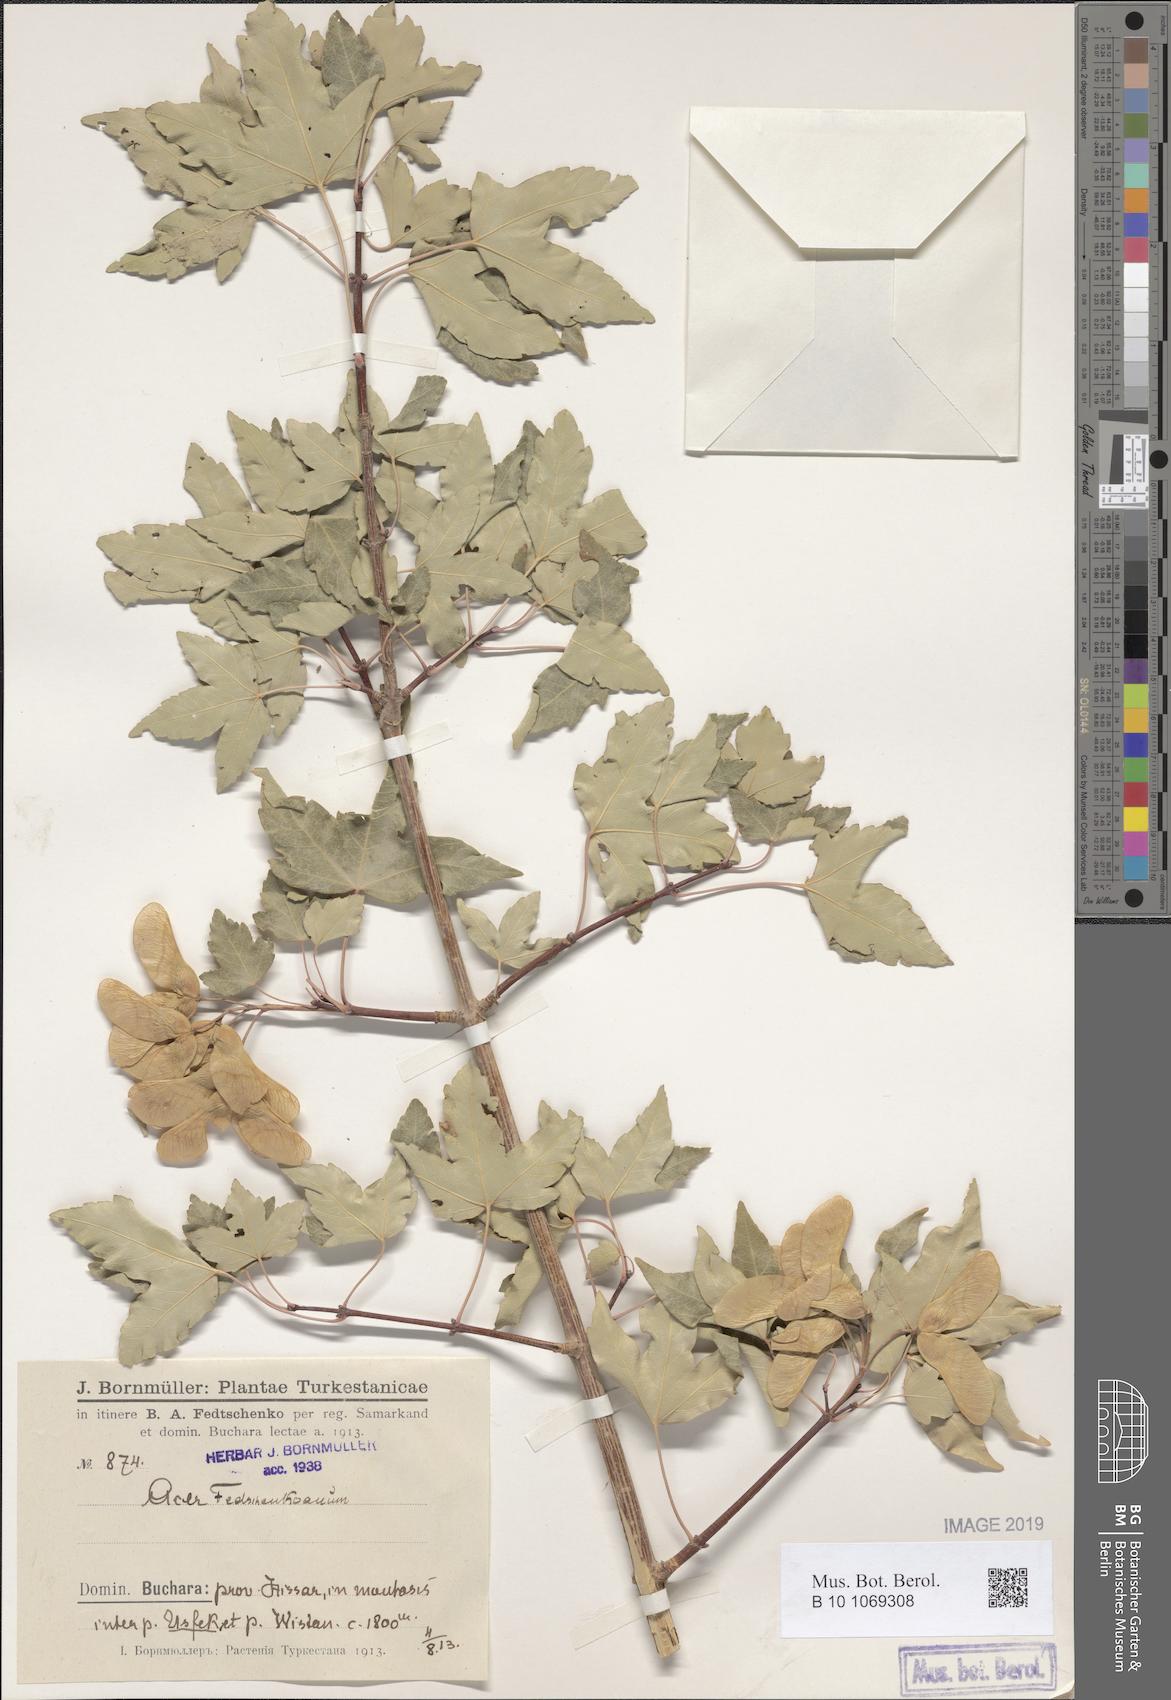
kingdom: Plantae
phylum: Tracheophyta
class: Magnoliopsida
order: Sapindales
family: Sapindaceae
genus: Acer
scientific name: Acer pentapomicum
